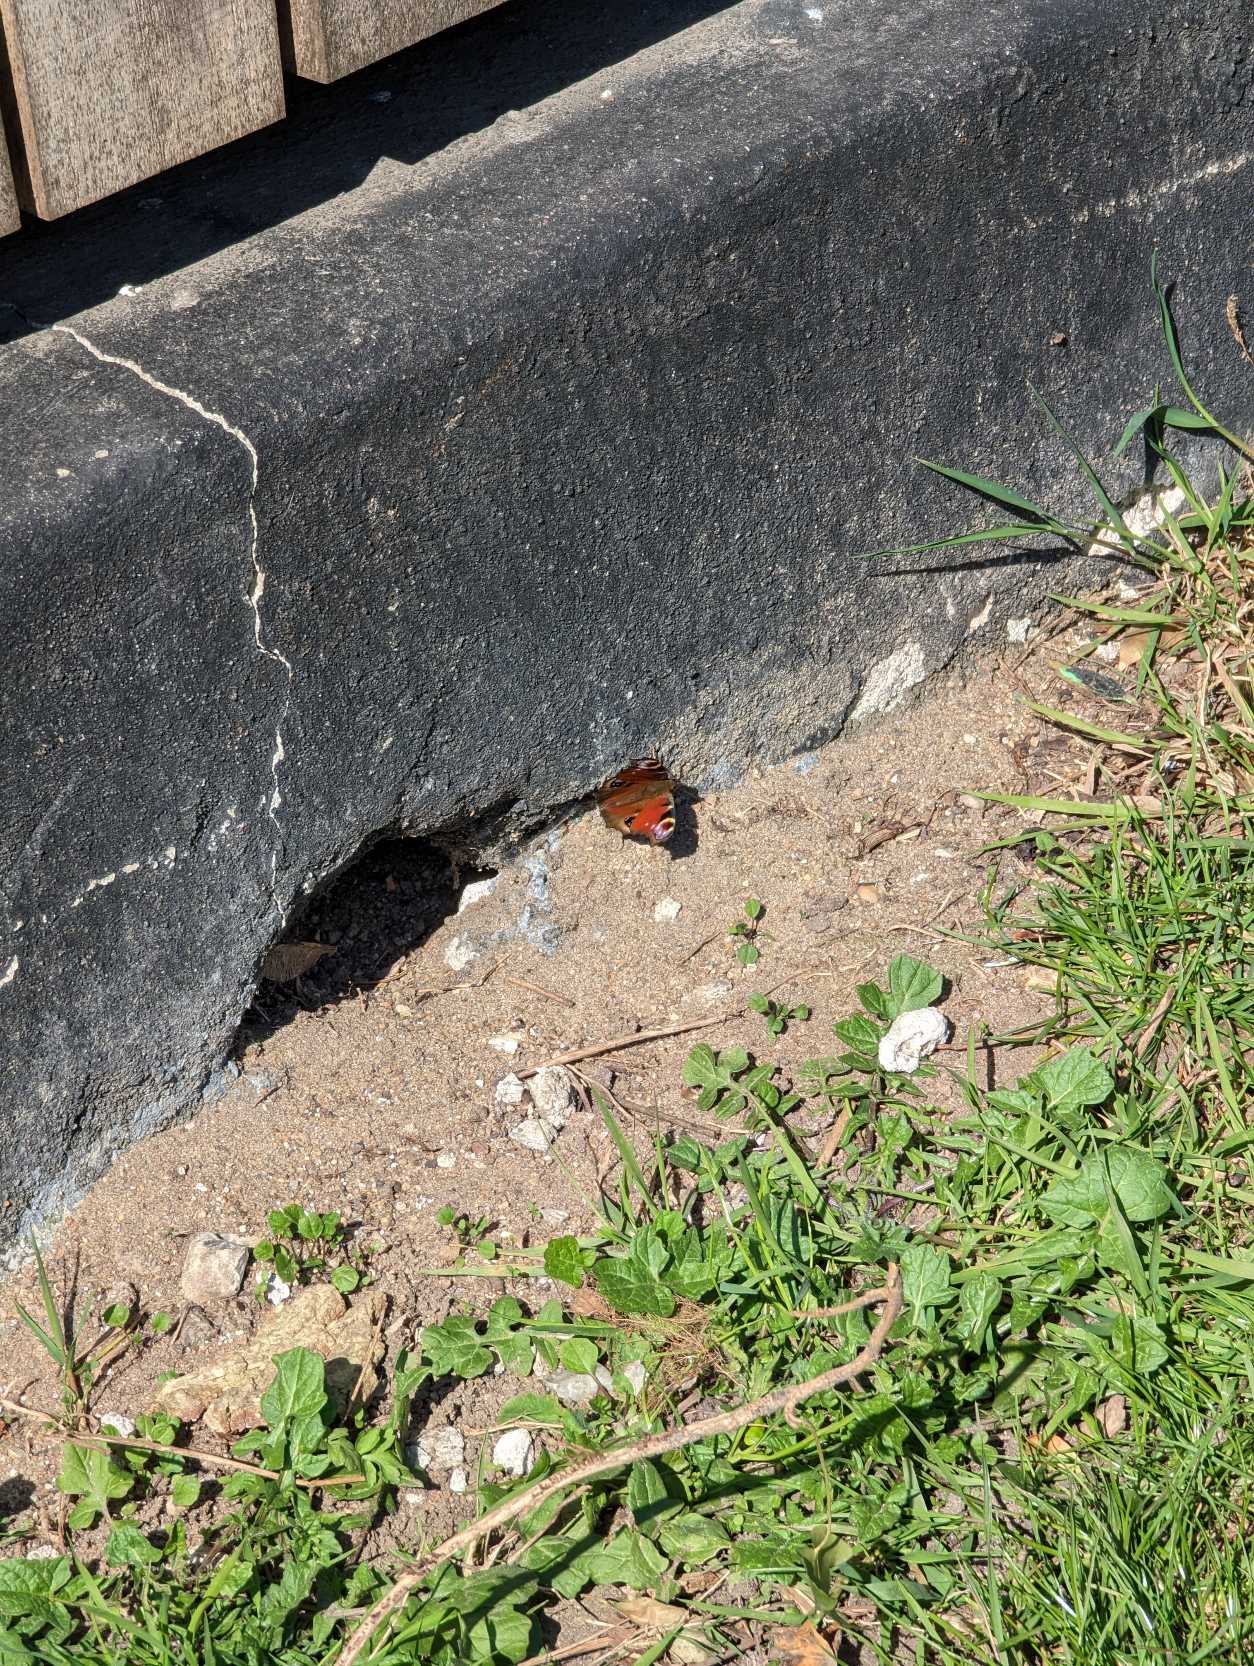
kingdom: Animalia
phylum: Arthropoda
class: Insecta
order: Lepidoptera
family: Nymphalidae
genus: Aglais
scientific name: Aglais io
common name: Dagpåfugleøje
